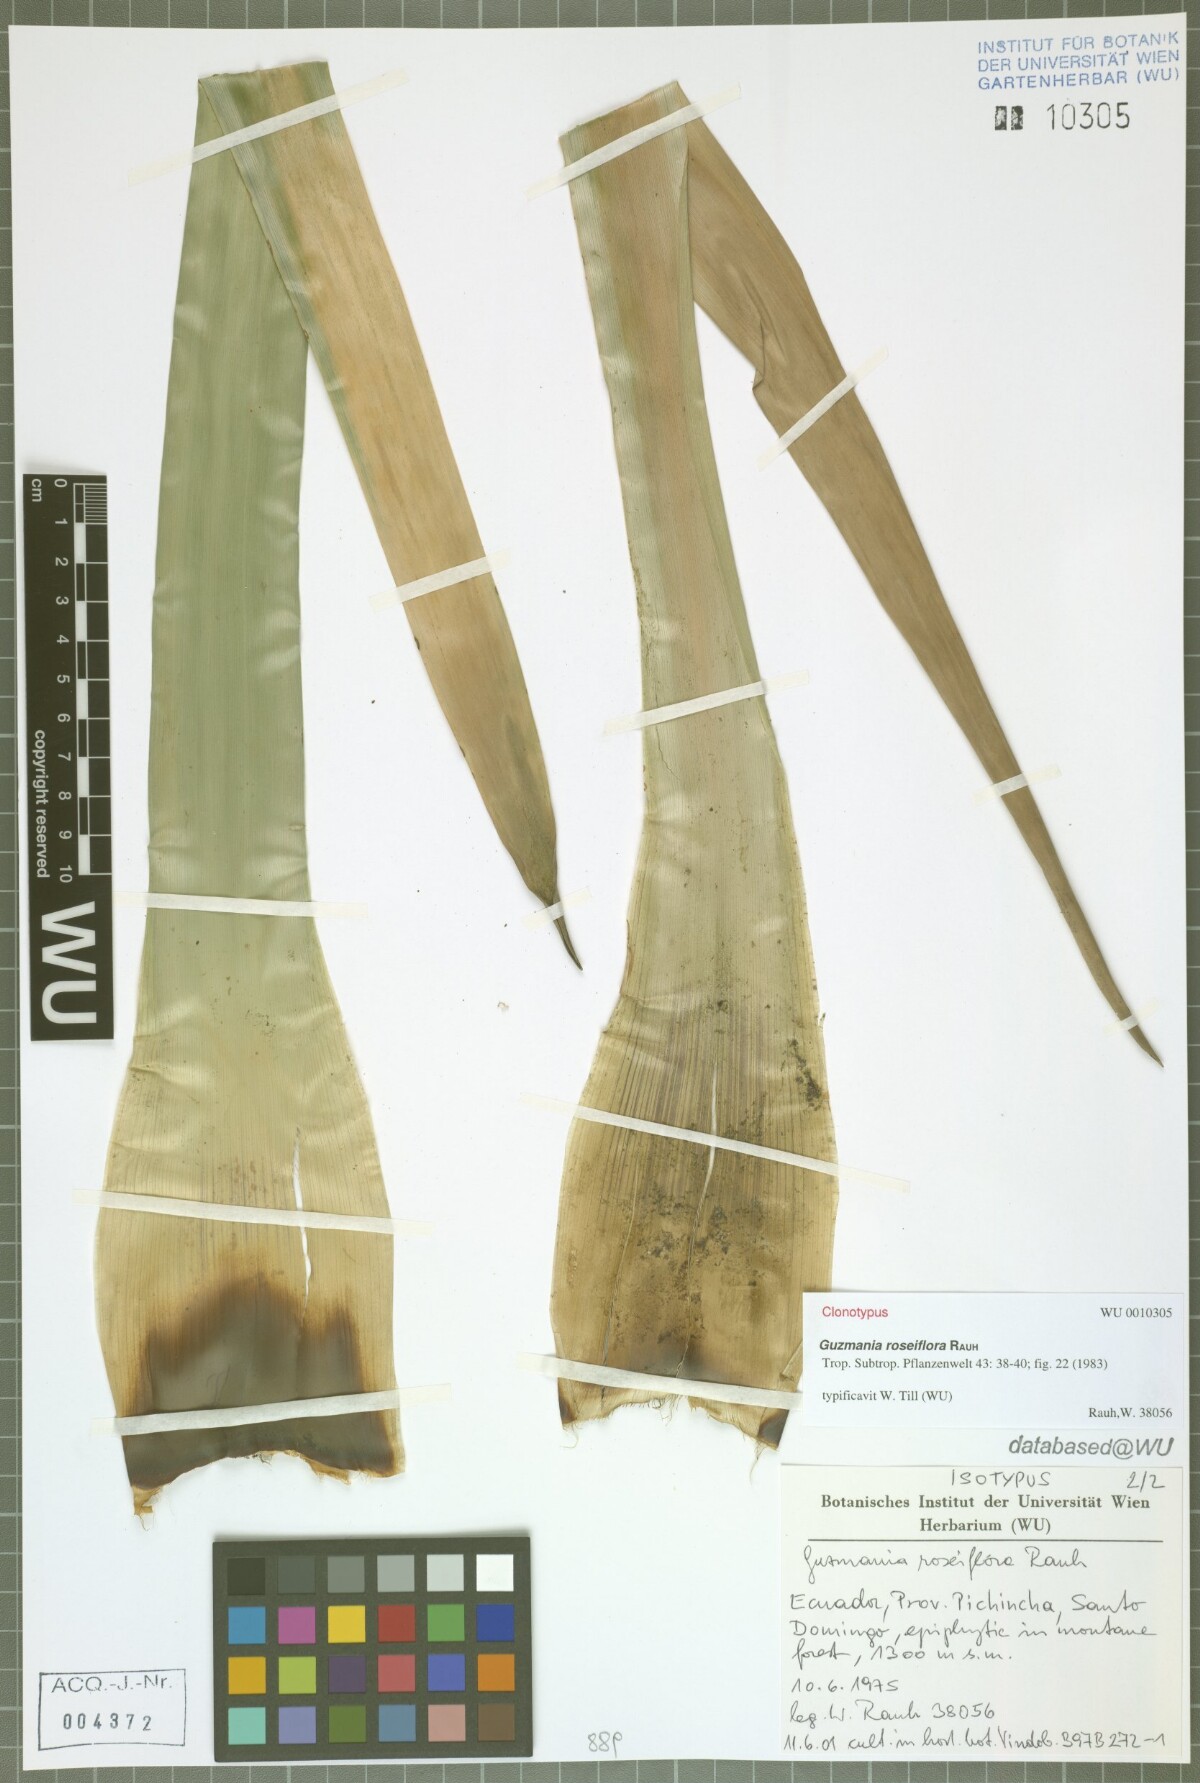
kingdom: Plantae
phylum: Tracheophyta
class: Liliopsida
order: Poales
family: Bromeliaceae
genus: Guzmania
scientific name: Guzmania roseiflora
